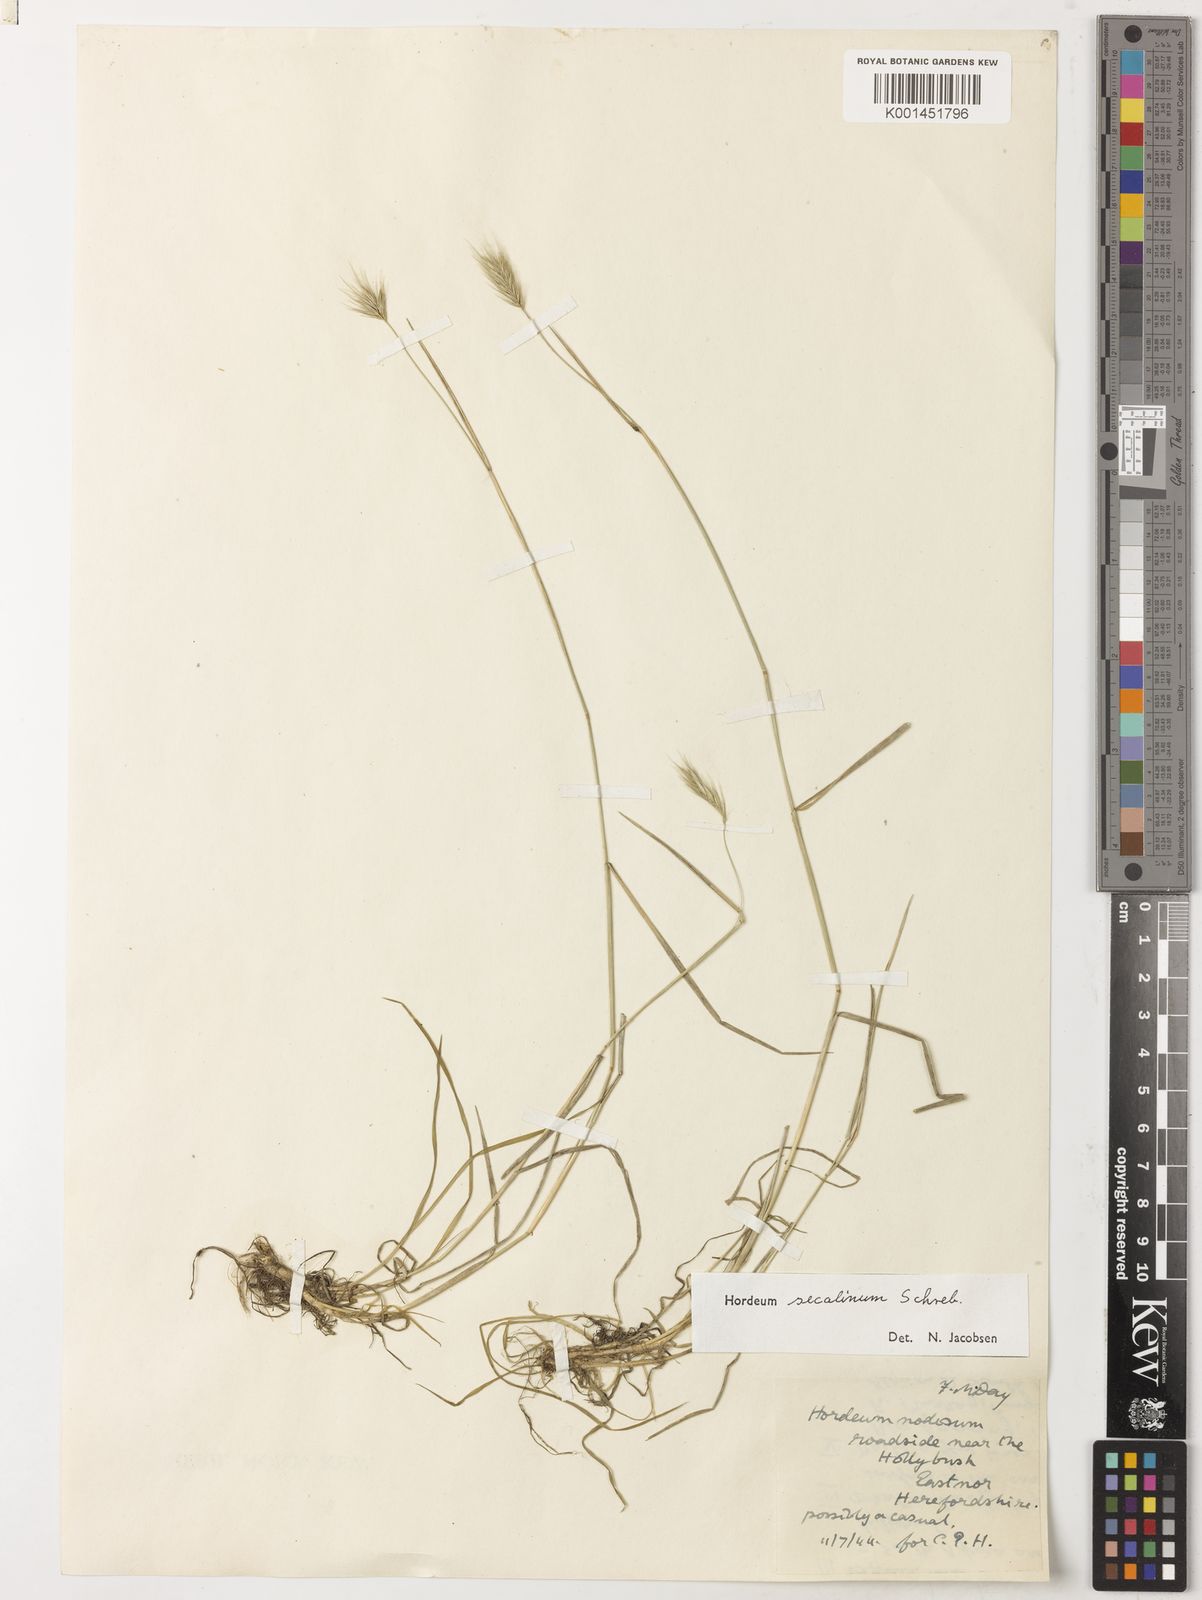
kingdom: Plantae
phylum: Tracheophyta
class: Liliopsida
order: Poales
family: Poaceae
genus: Hordeum
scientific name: Hordeum secalinum
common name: Meadow barley
